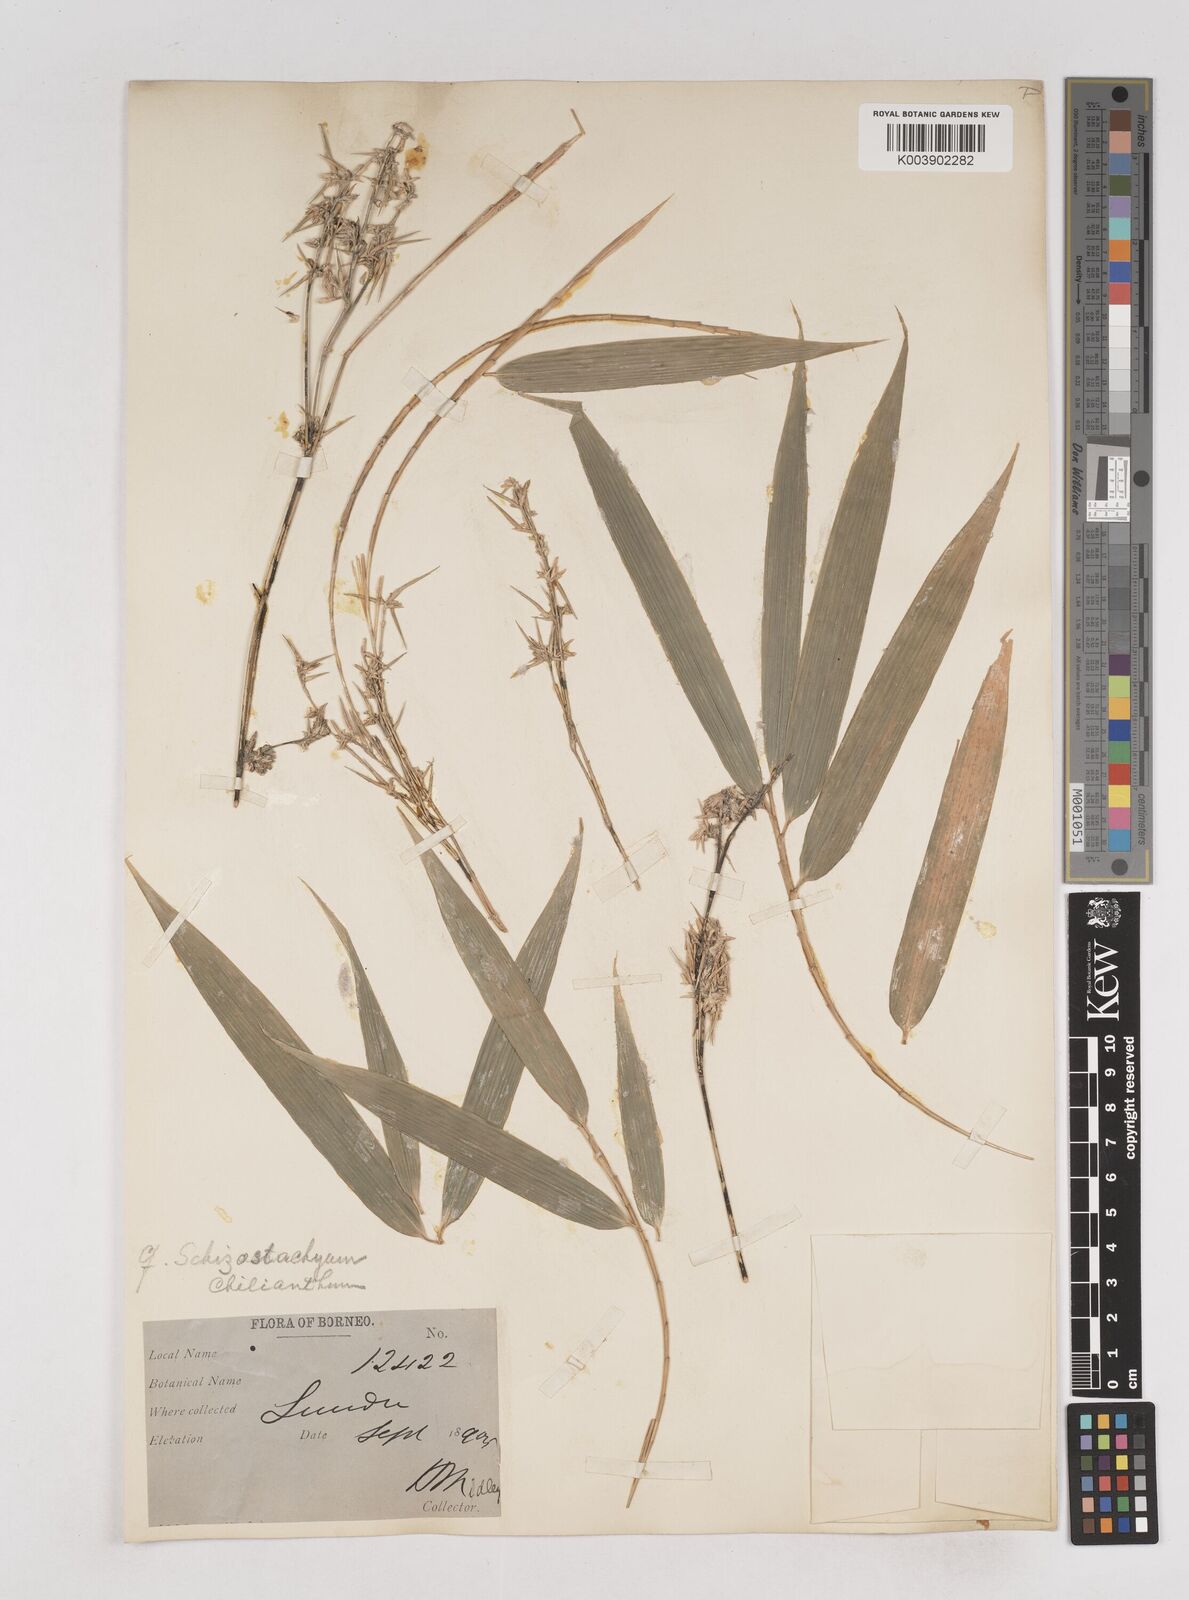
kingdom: Plantae
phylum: Tracheophyta
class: Liliopsida
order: Poales
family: Poaceae
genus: Schizostachyum
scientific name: Schizostachyum lima
